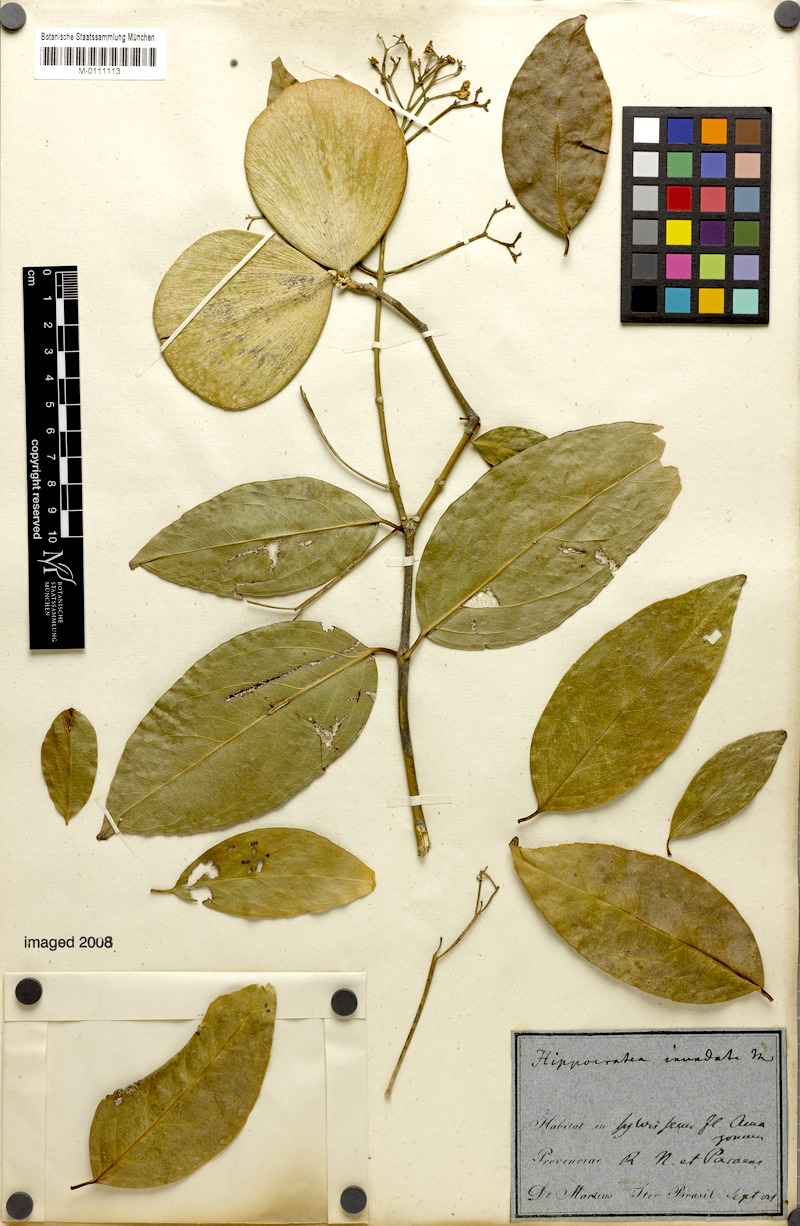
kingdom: Plantae
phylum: Tracheophyta
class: Magnoliopsida
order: Celastrales
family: Celastraceae
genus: Cuervea
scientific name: Cuervea kappleriana
